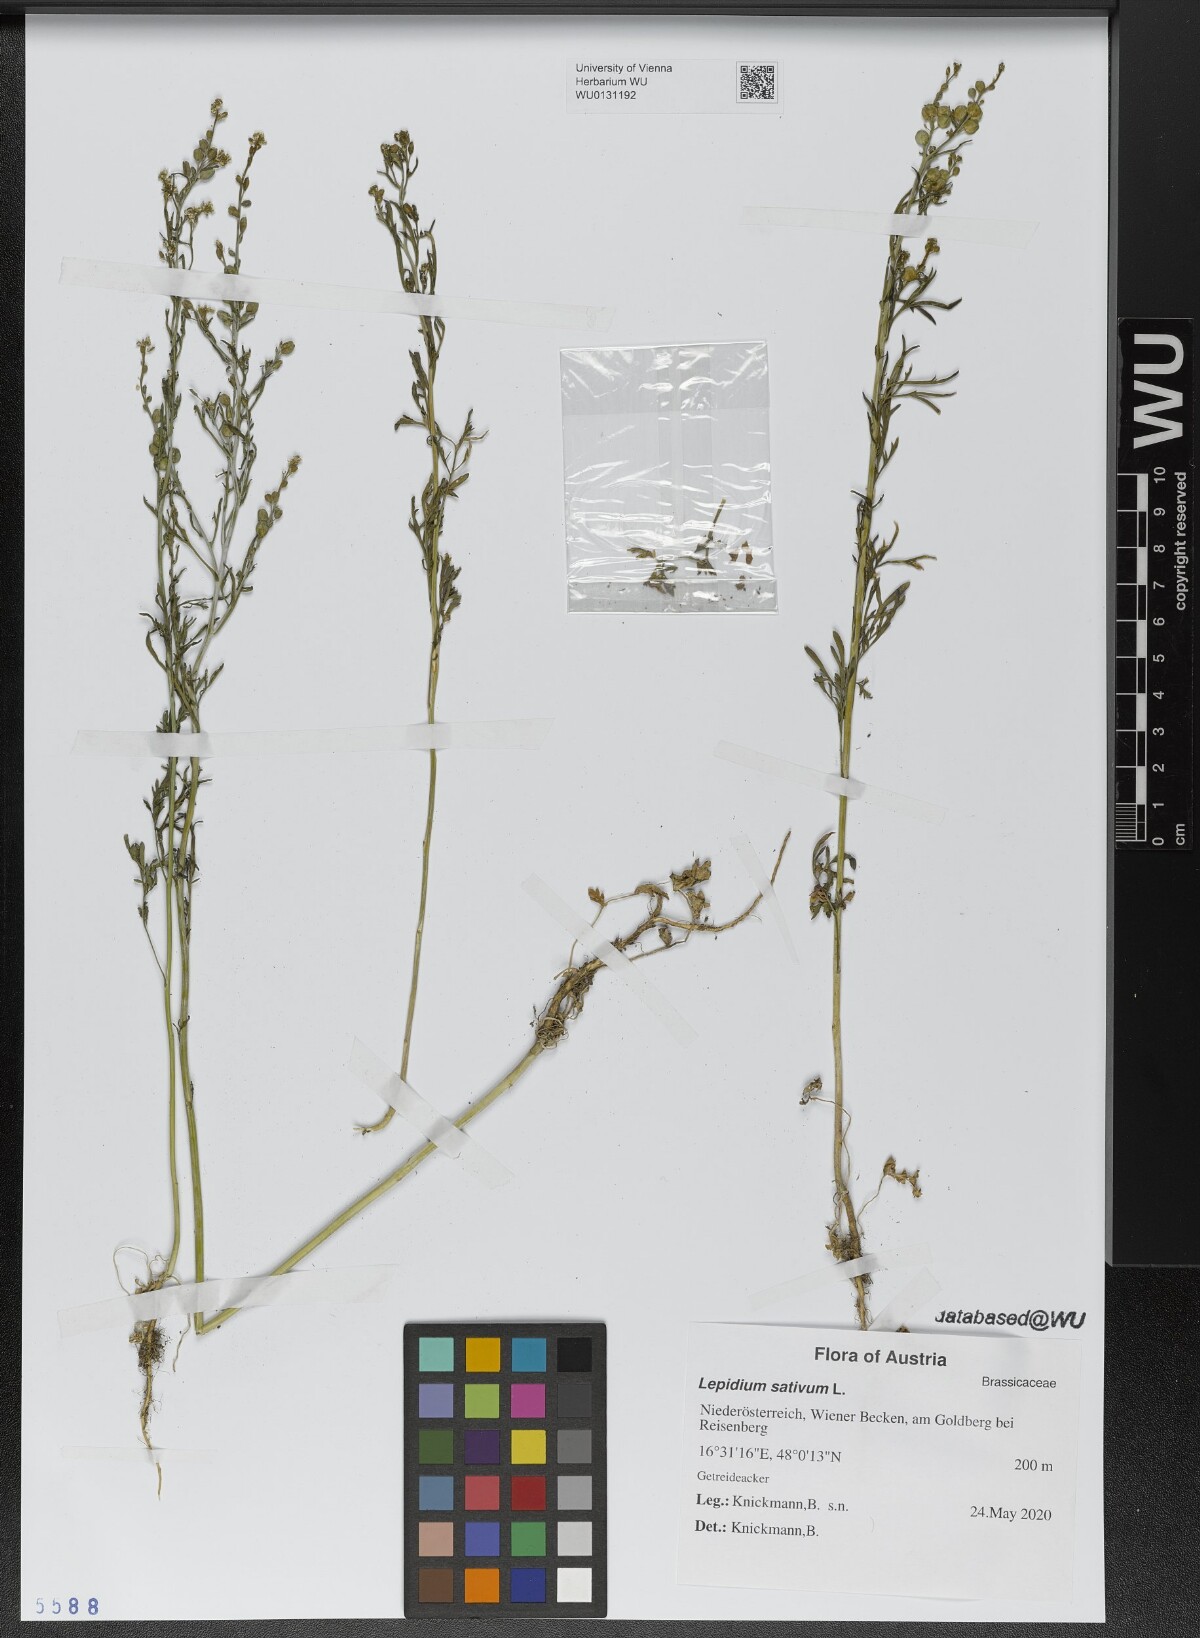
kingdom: Plantae
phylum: Tracheophyta
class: Magnoliopsida
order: Brassicales
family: Brassicaceae
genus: Lepidium
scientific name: Lepidium sativum
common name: Garden cress
